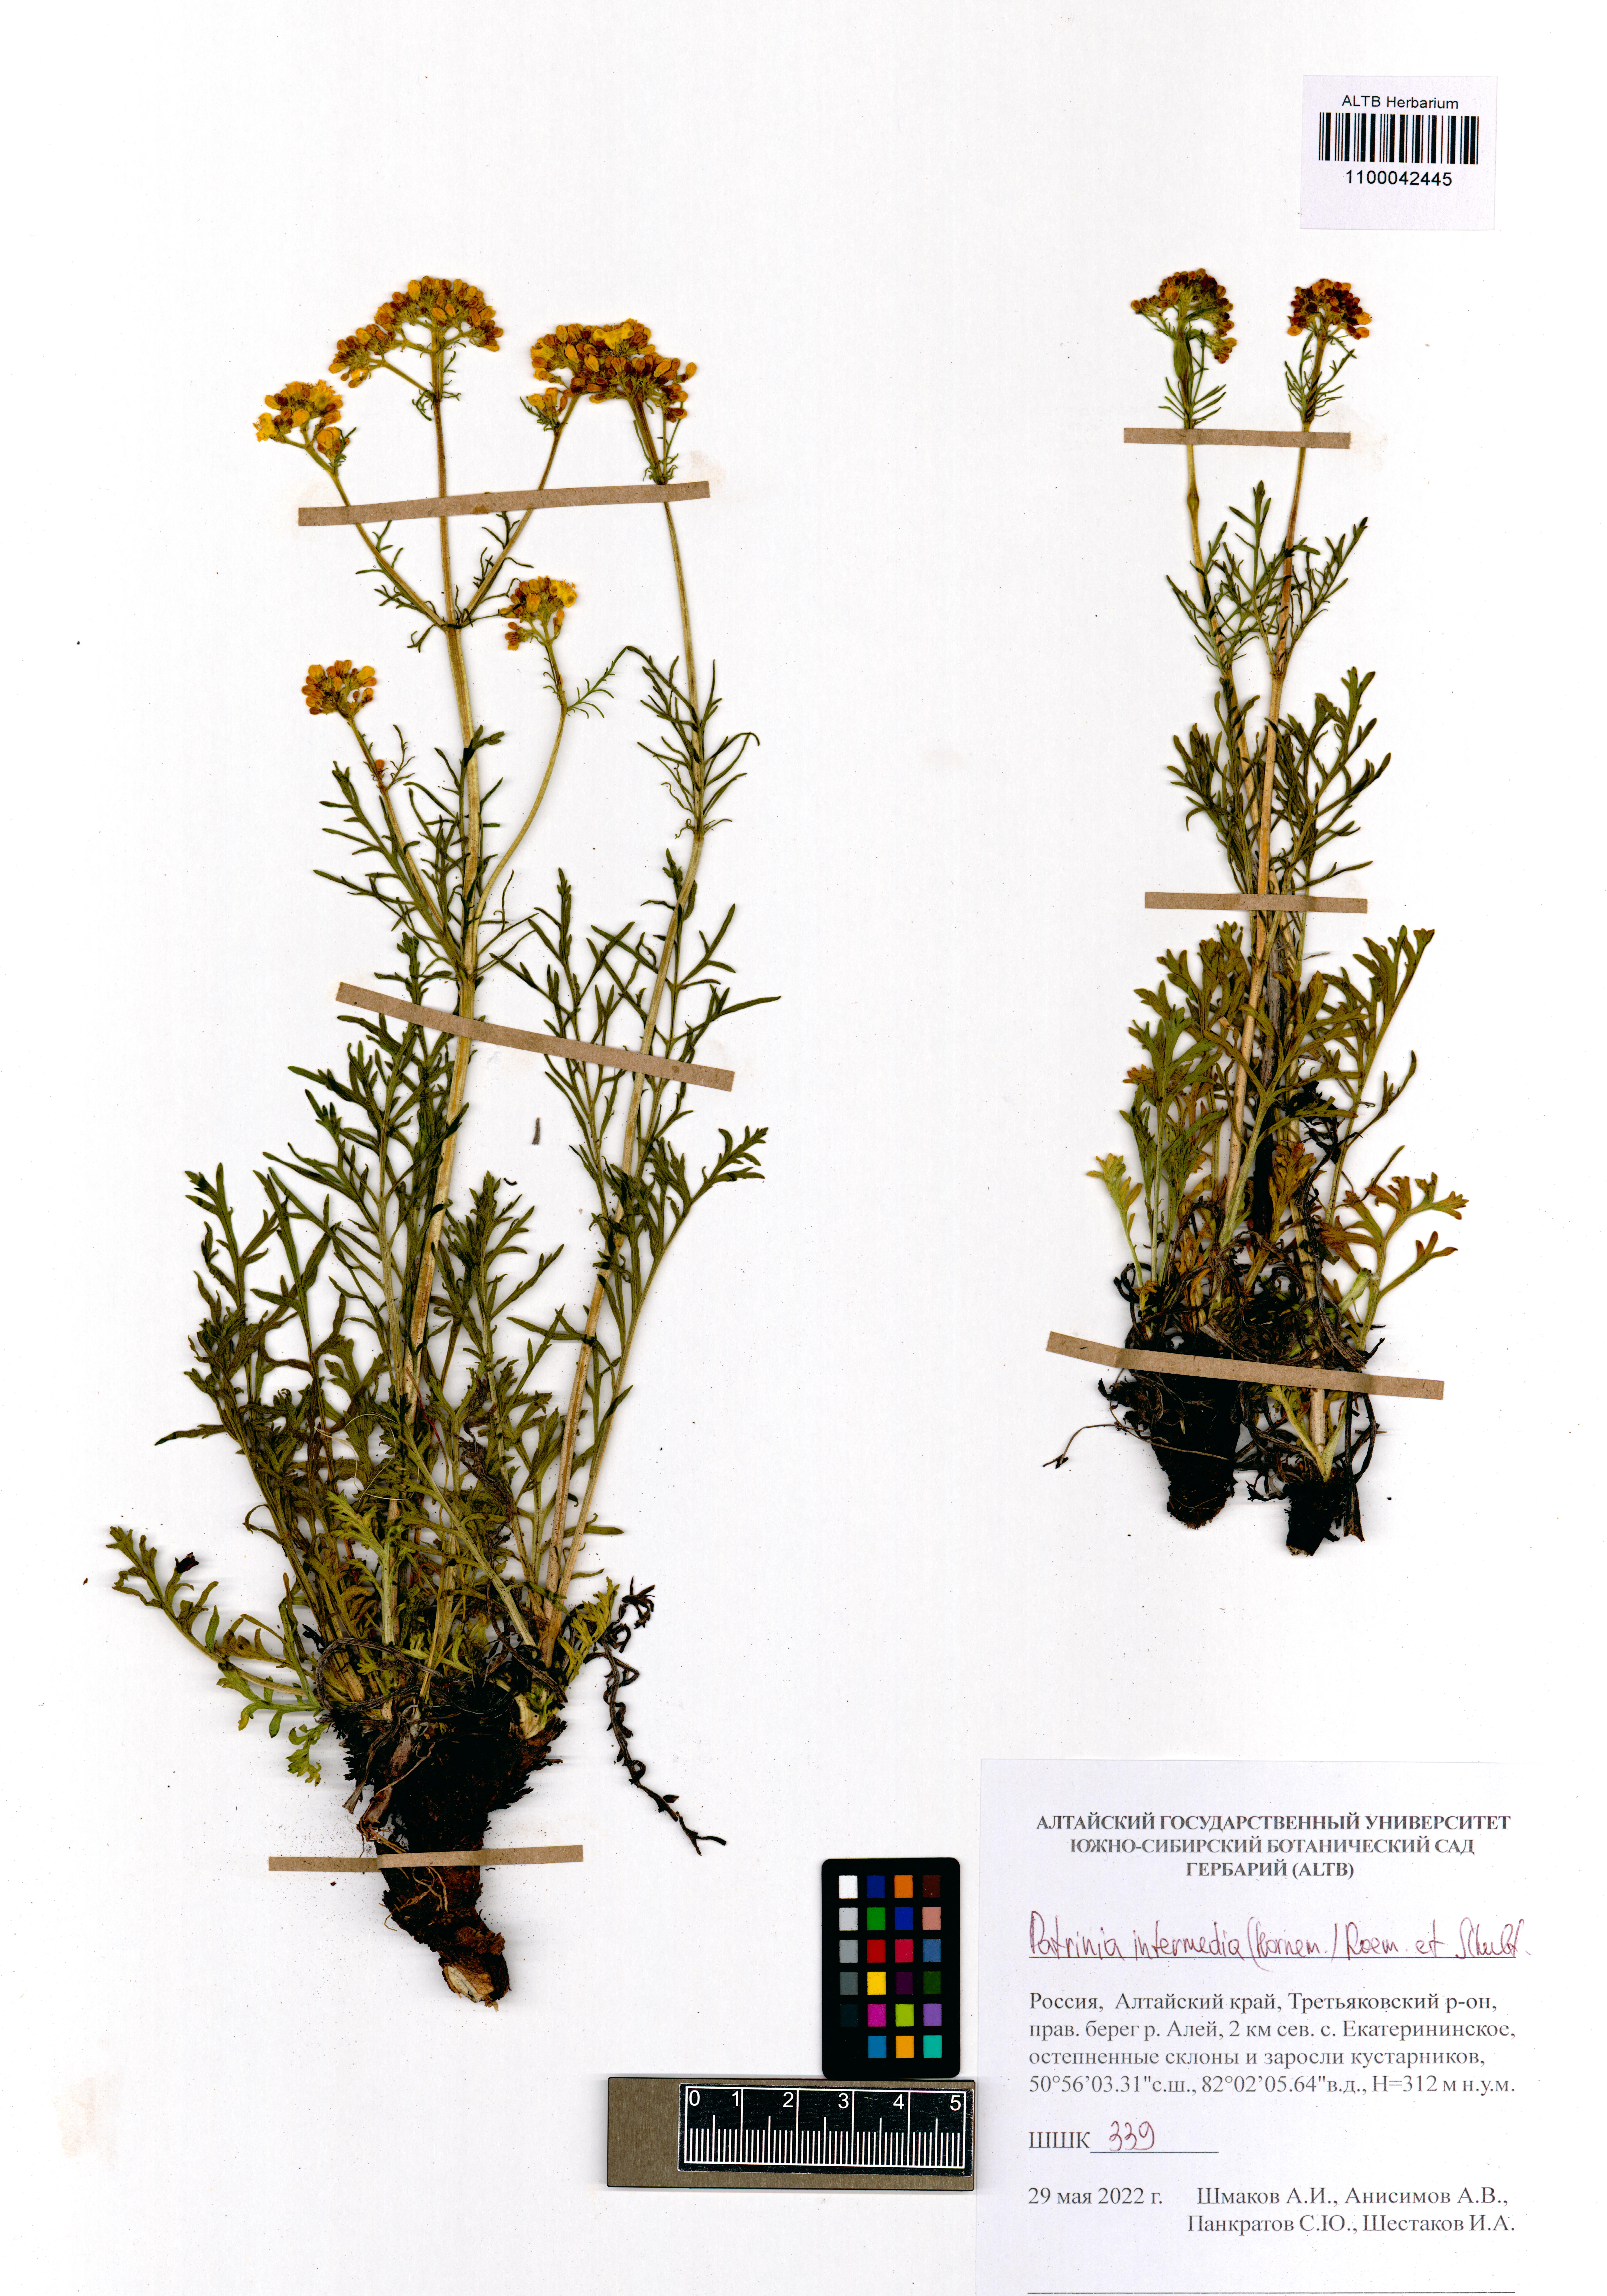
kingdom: Plantae
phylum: Tracheophyta
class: Magnoliopsida
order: Dipsacales
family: Caprifoliaceae
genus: Patrinia
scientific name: Patrinia intermedia
